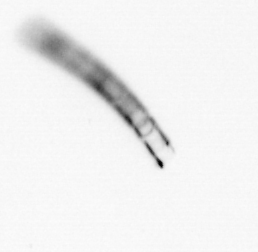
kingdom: Chromista
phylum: Ochrophyta
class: Bacillariophyceae
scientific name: Bacillariophyceae
